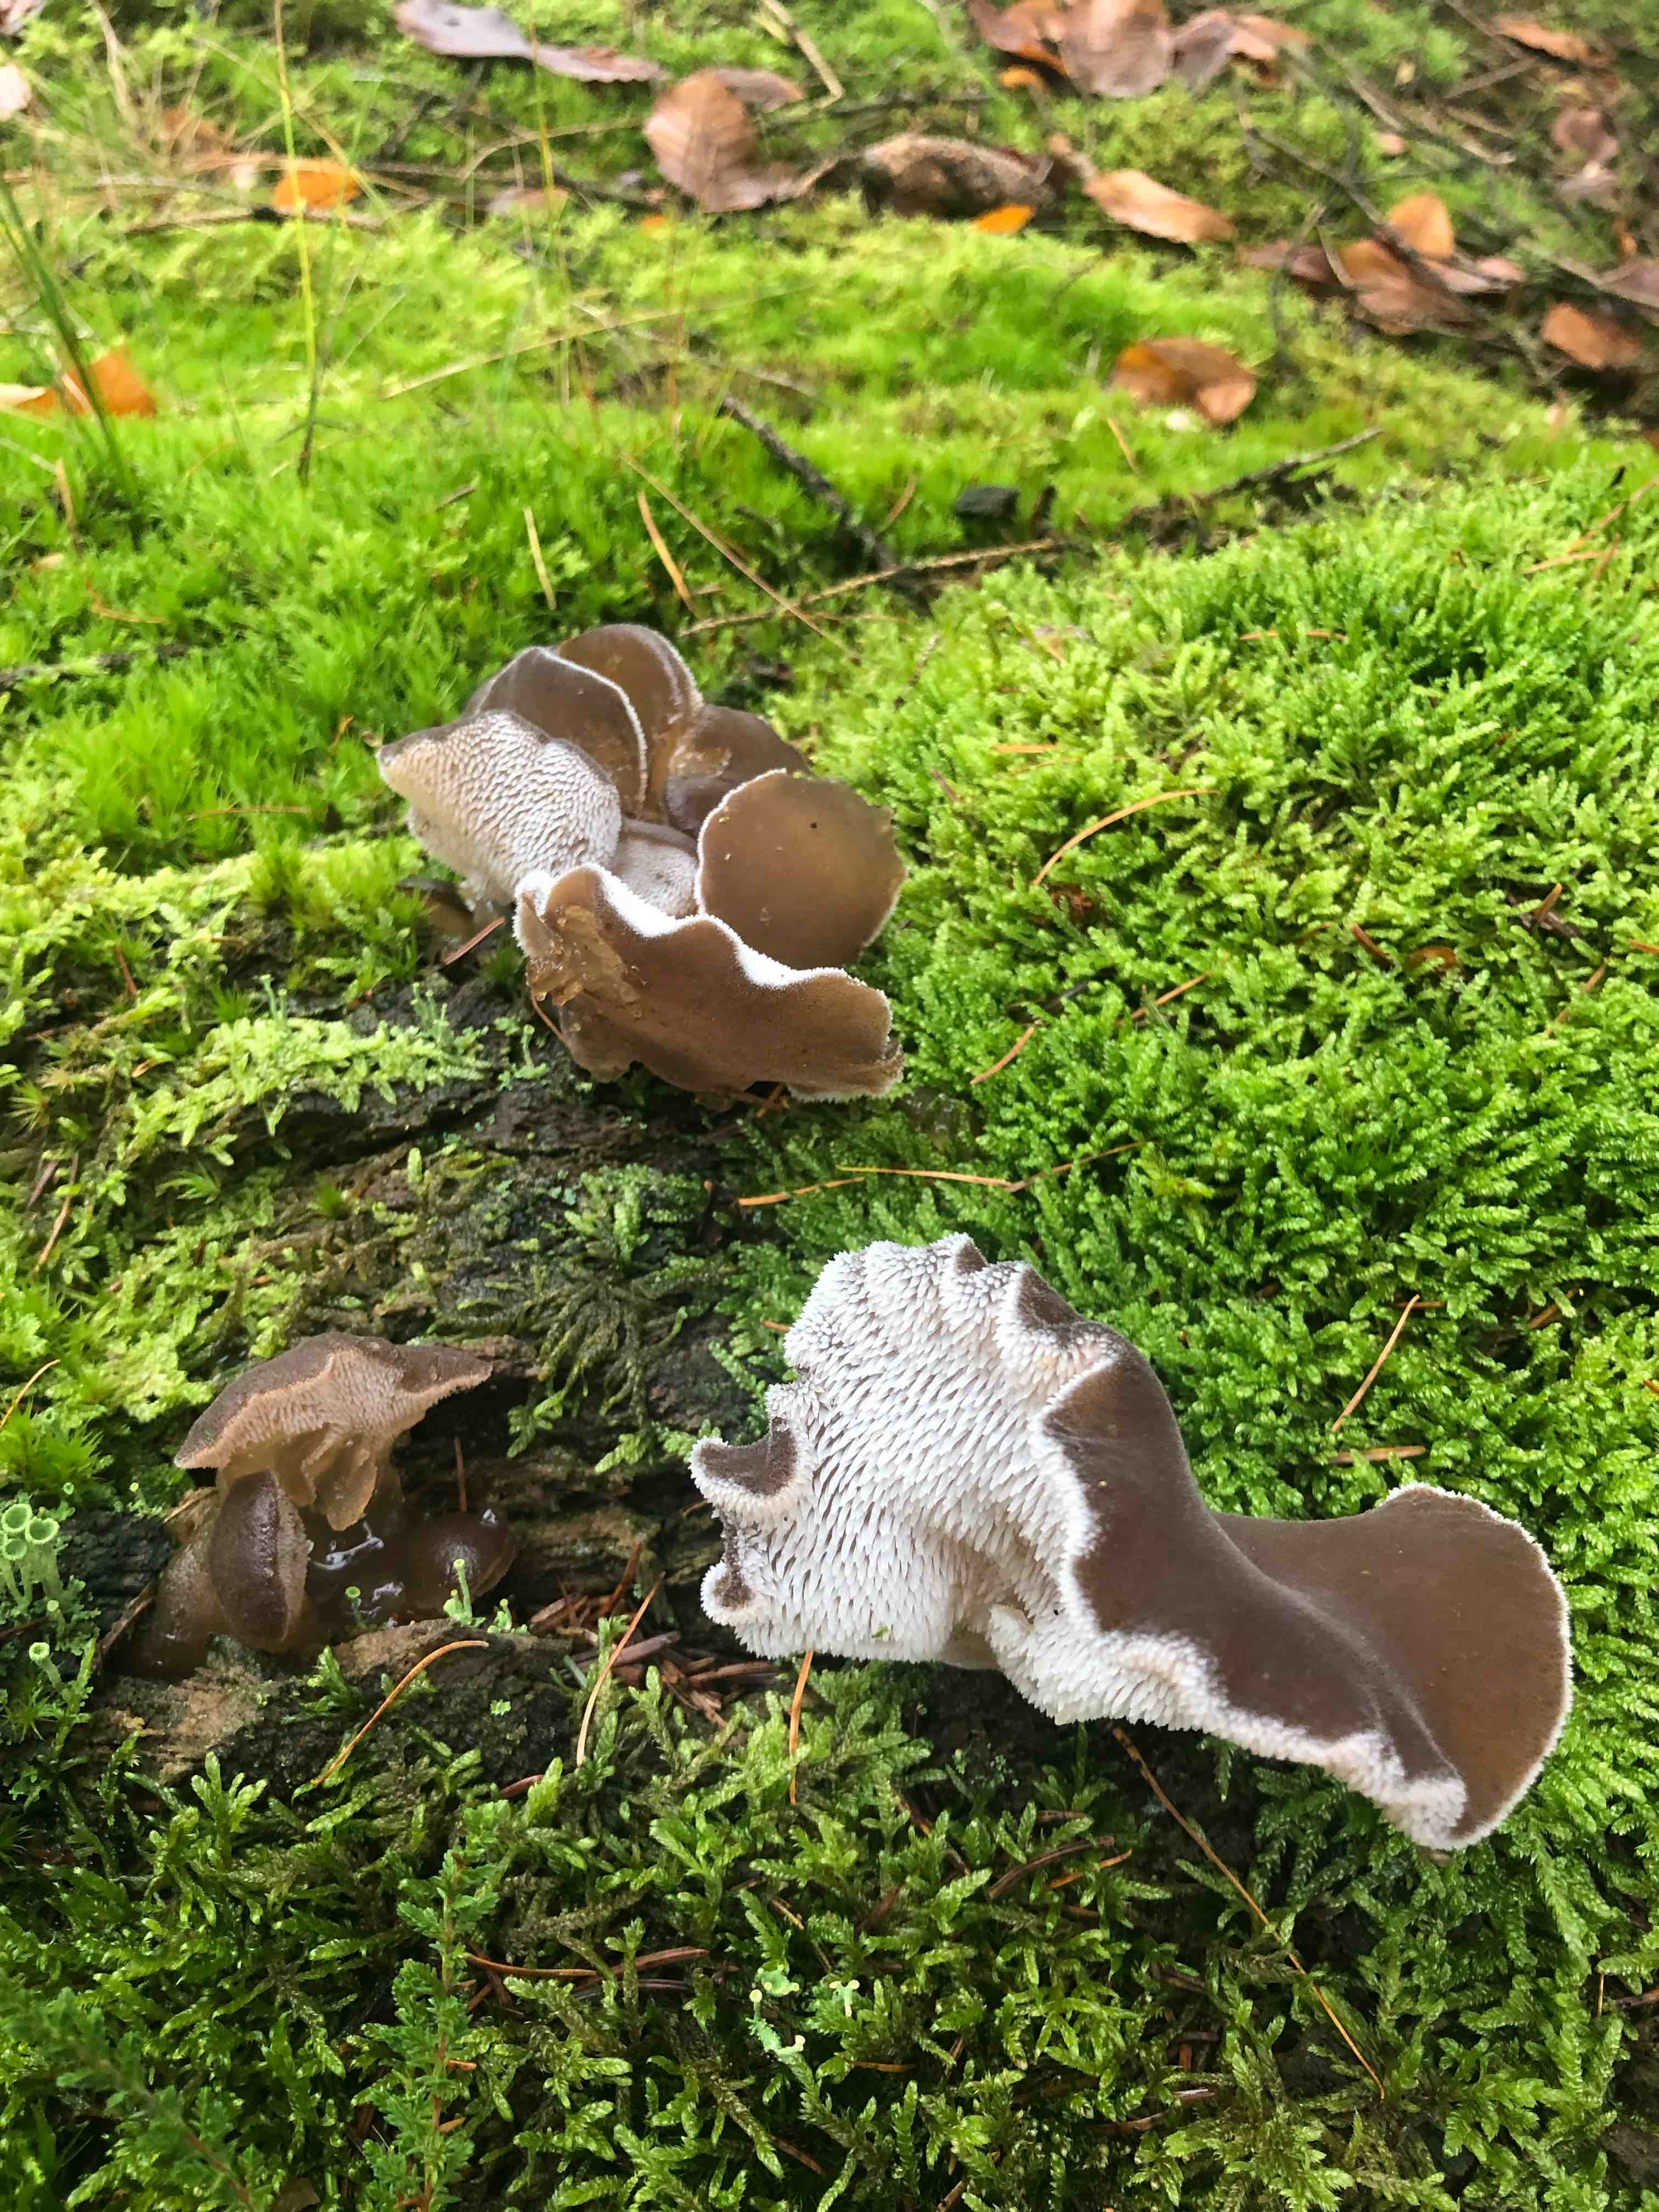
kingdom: Fungi
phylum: Basidiomycota
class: Agaricomycetes
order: Auriculariales
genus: Pseudohydnum
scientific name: Pseudohydnum gelatinosum
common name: bævretand
